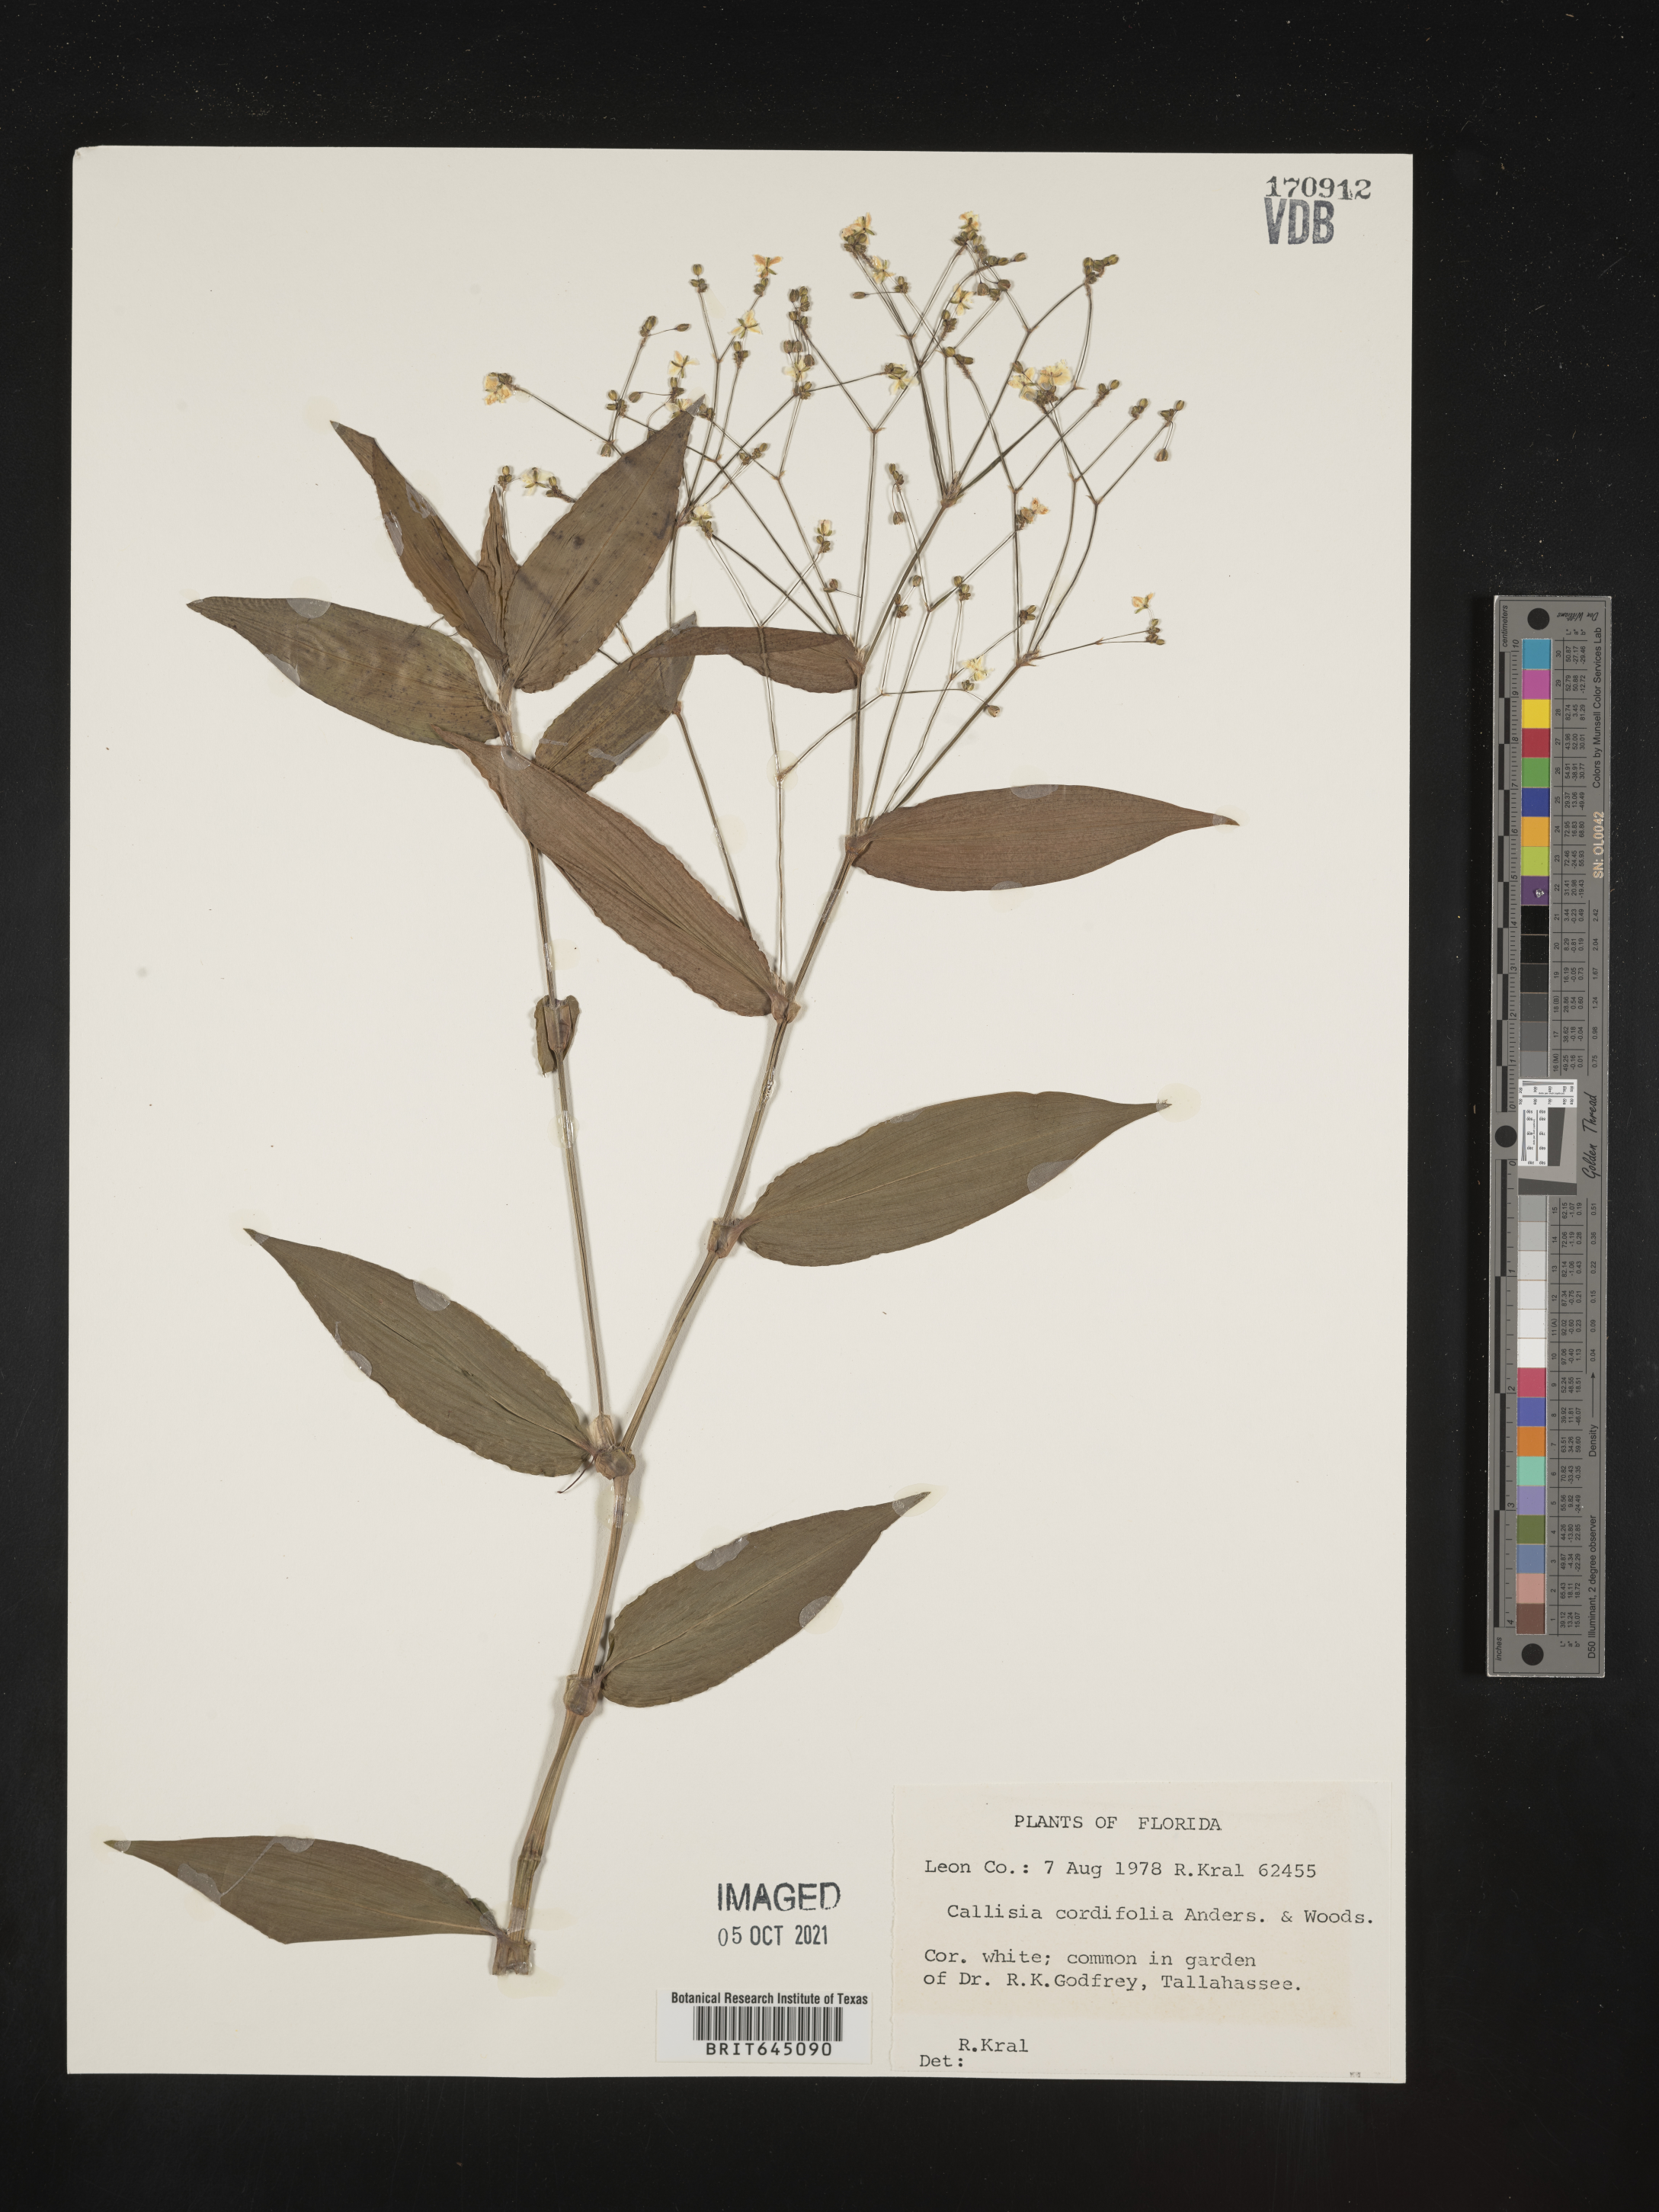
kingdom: Plantae
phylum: Tracheophyta
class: Liliopsida
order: Commelinales
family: Commelinaceae
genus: Callisia
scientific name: Callisia cordifolia
